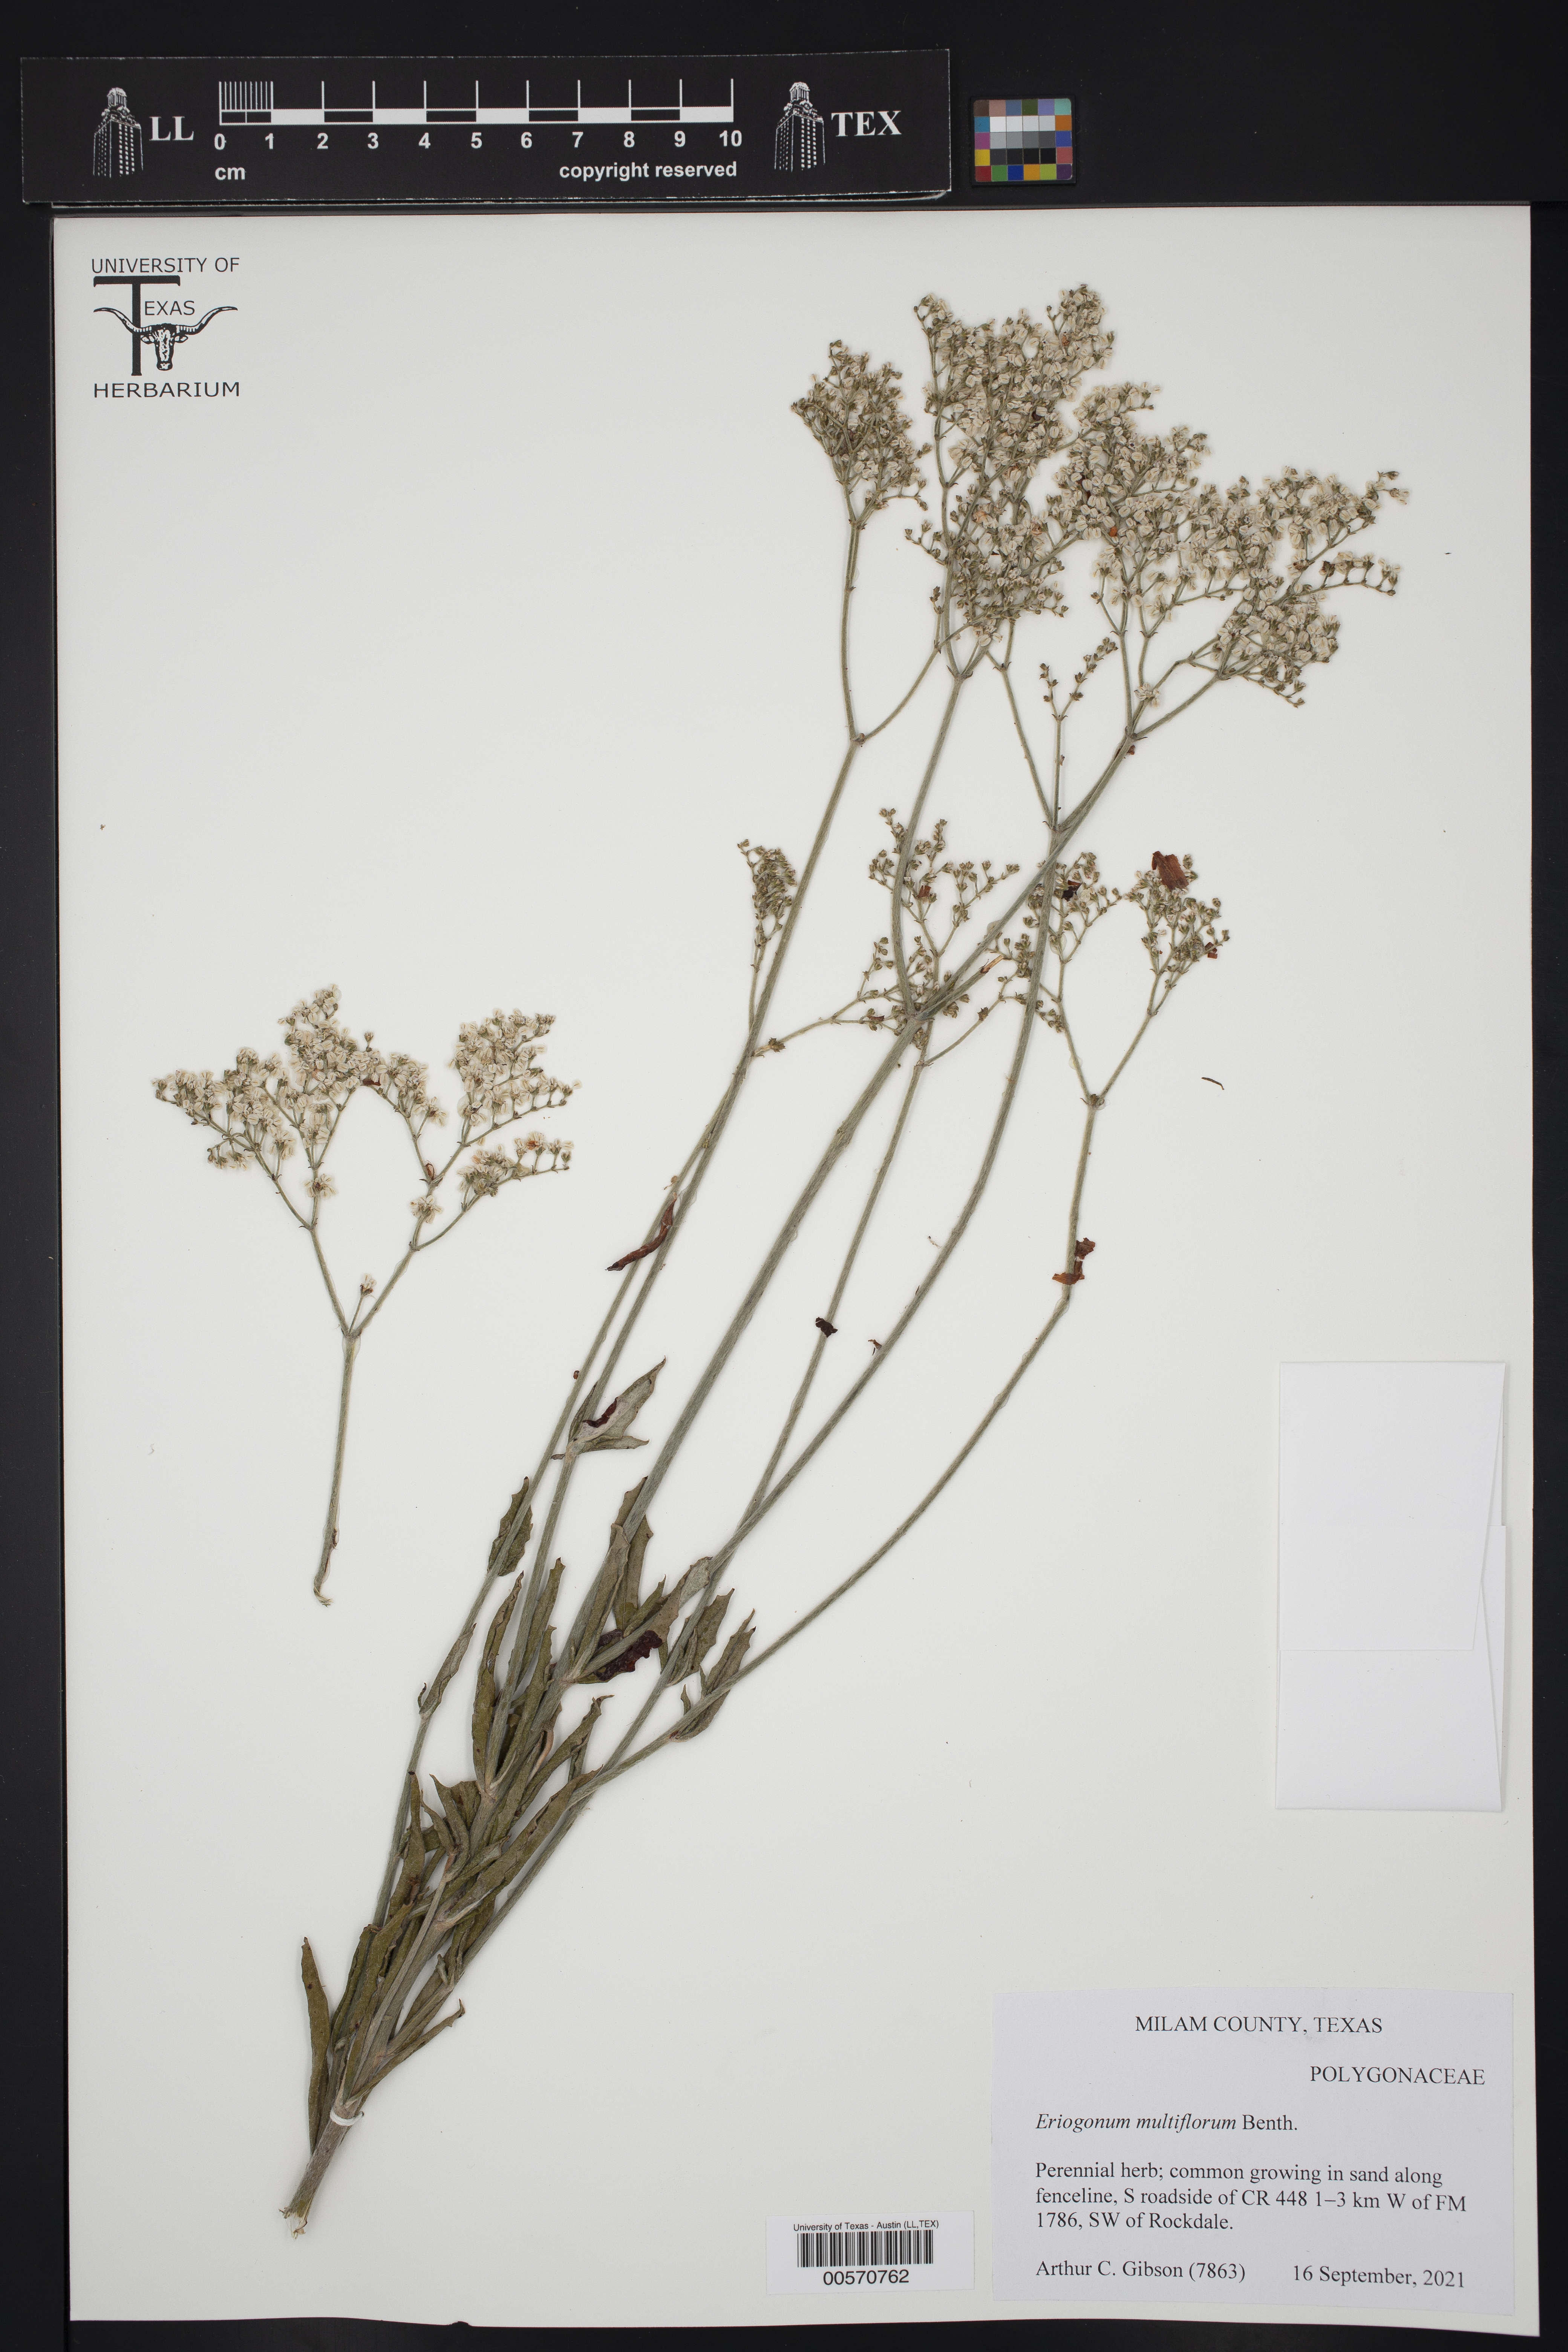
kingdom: Plantae
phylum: Tracheophyta
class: Magnoliopsida
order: Caryophyllales
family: Polygonaceae
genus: Eriogonum
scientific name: Eriogonum multiflorum
